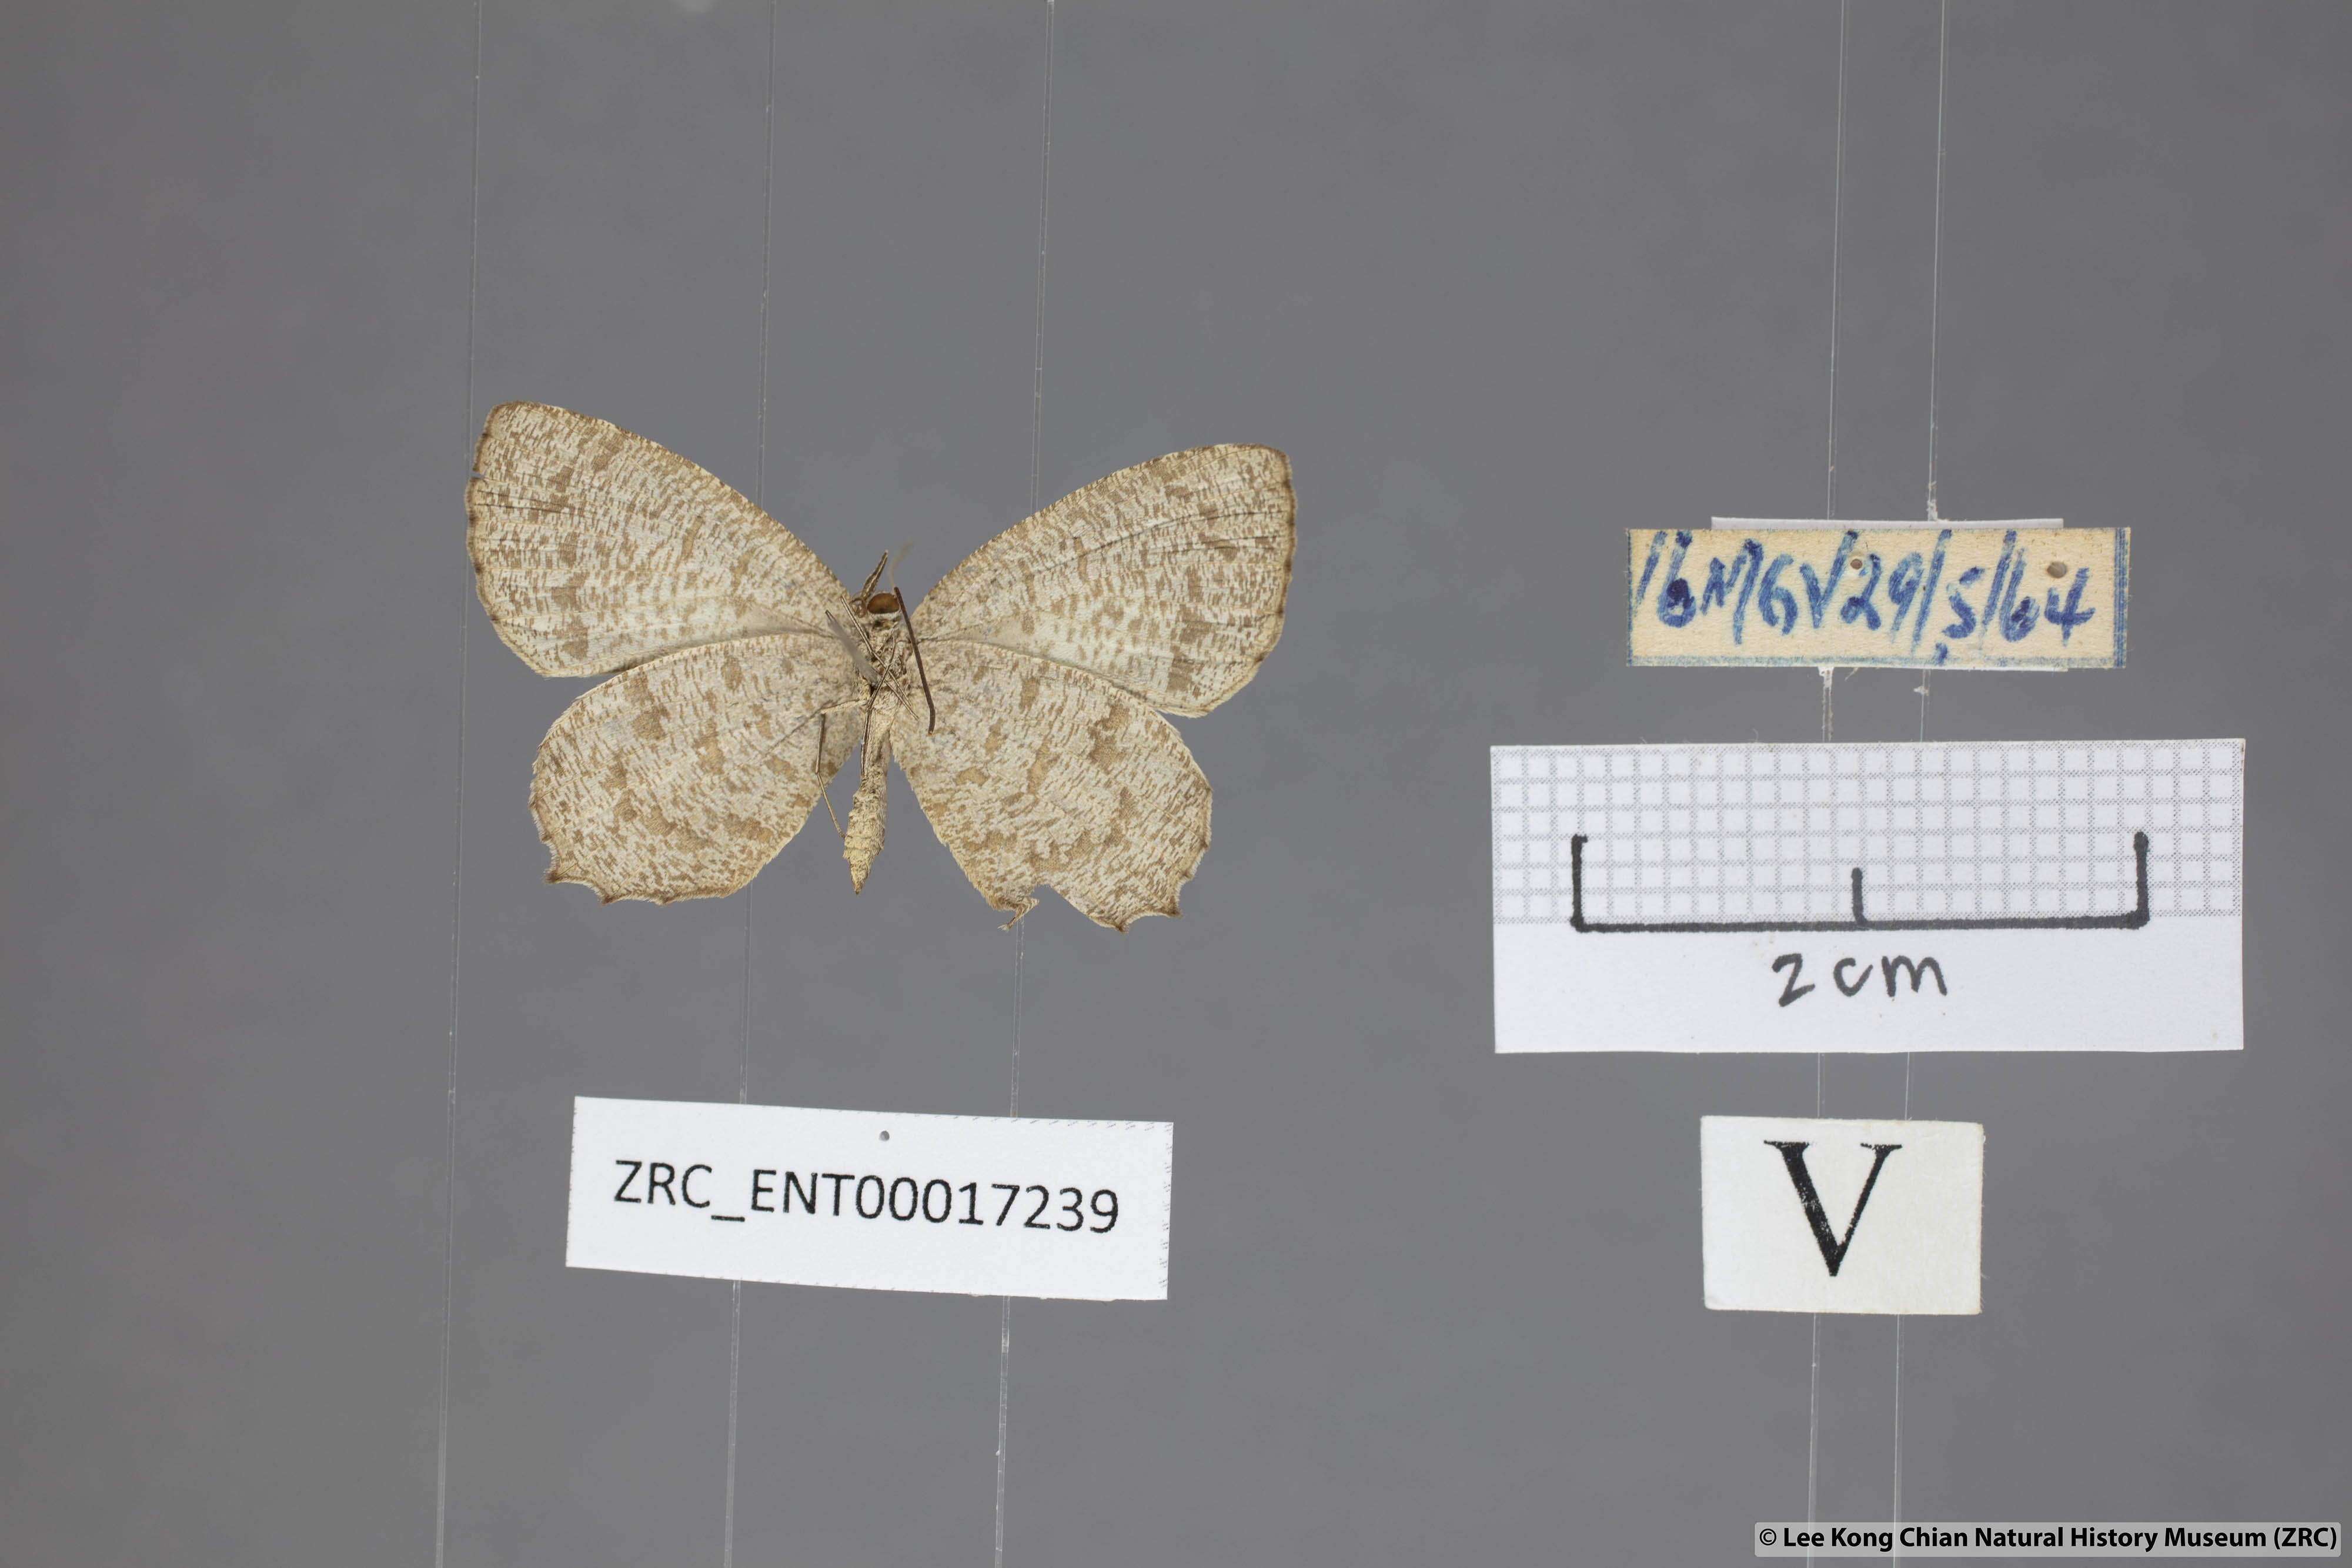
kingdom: Animalia
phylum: Arthropoda
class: Insecta
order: Lepidoptera
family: Lycaenidae
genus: Allotinus
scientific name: Allotinus fallax
